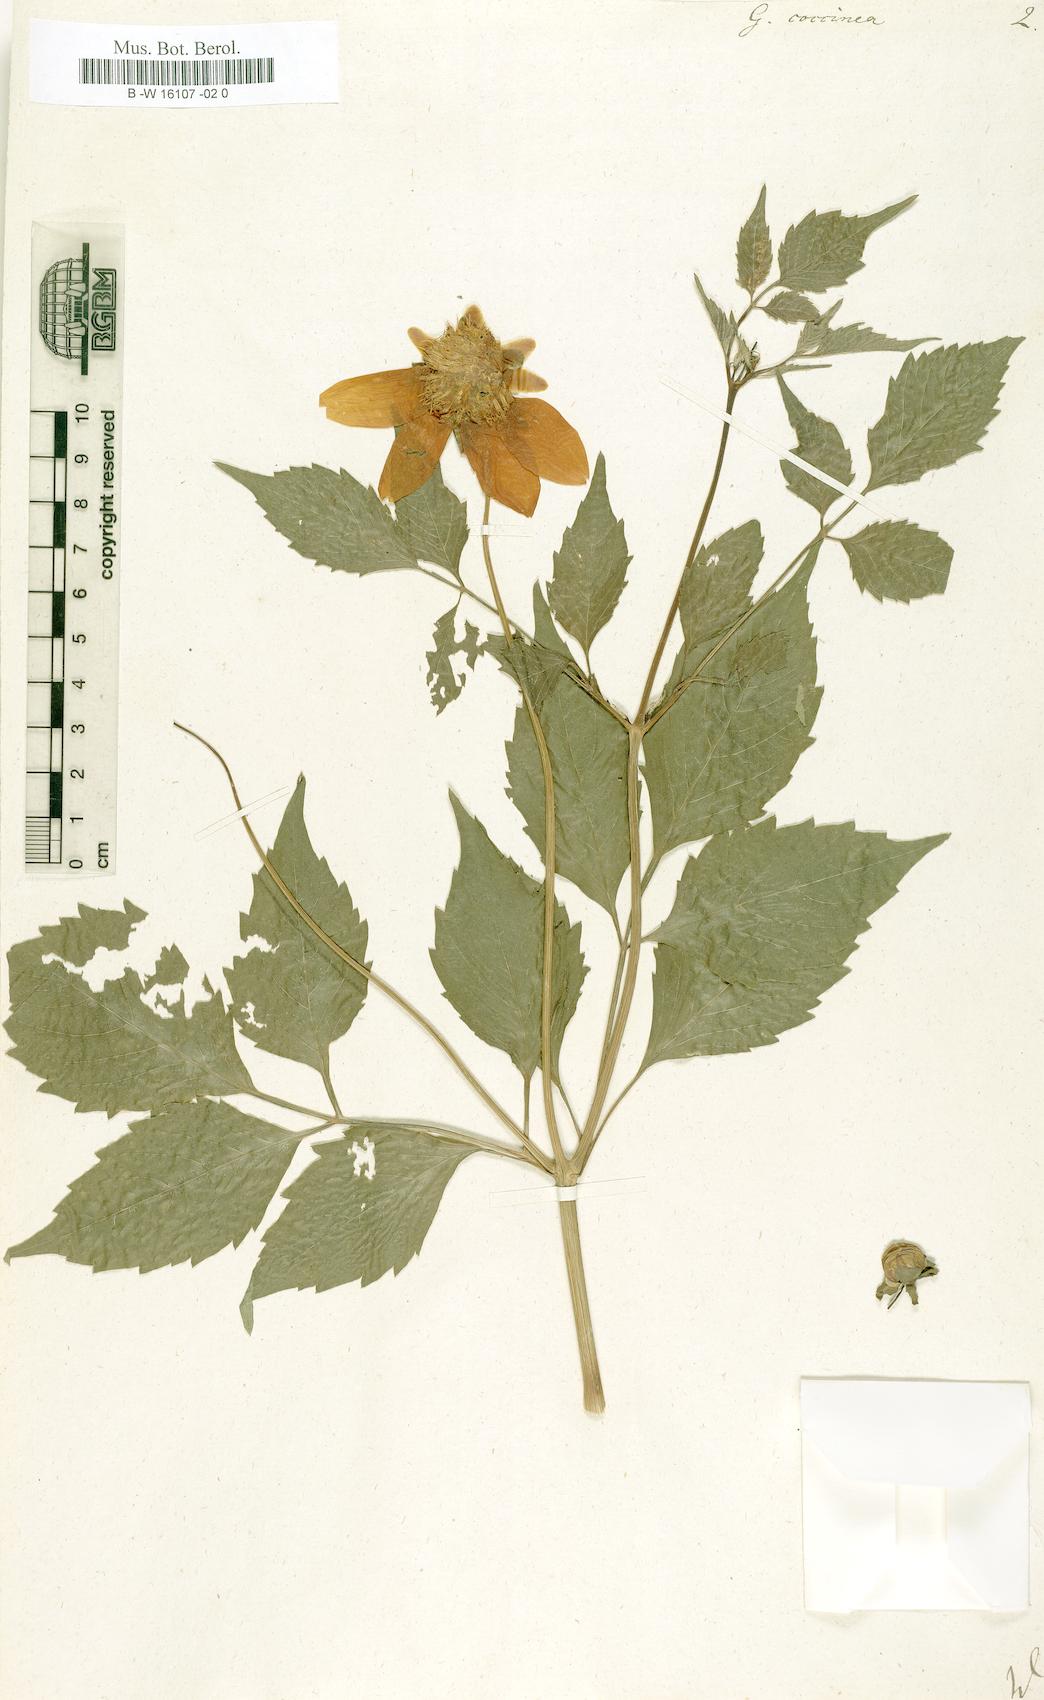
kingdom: Plantae
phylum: Tracheophyta
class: Magnoliopsida
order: Asterales
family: Asteraceae
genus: Dahlia
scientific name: Dahlia Georgina coccinea
